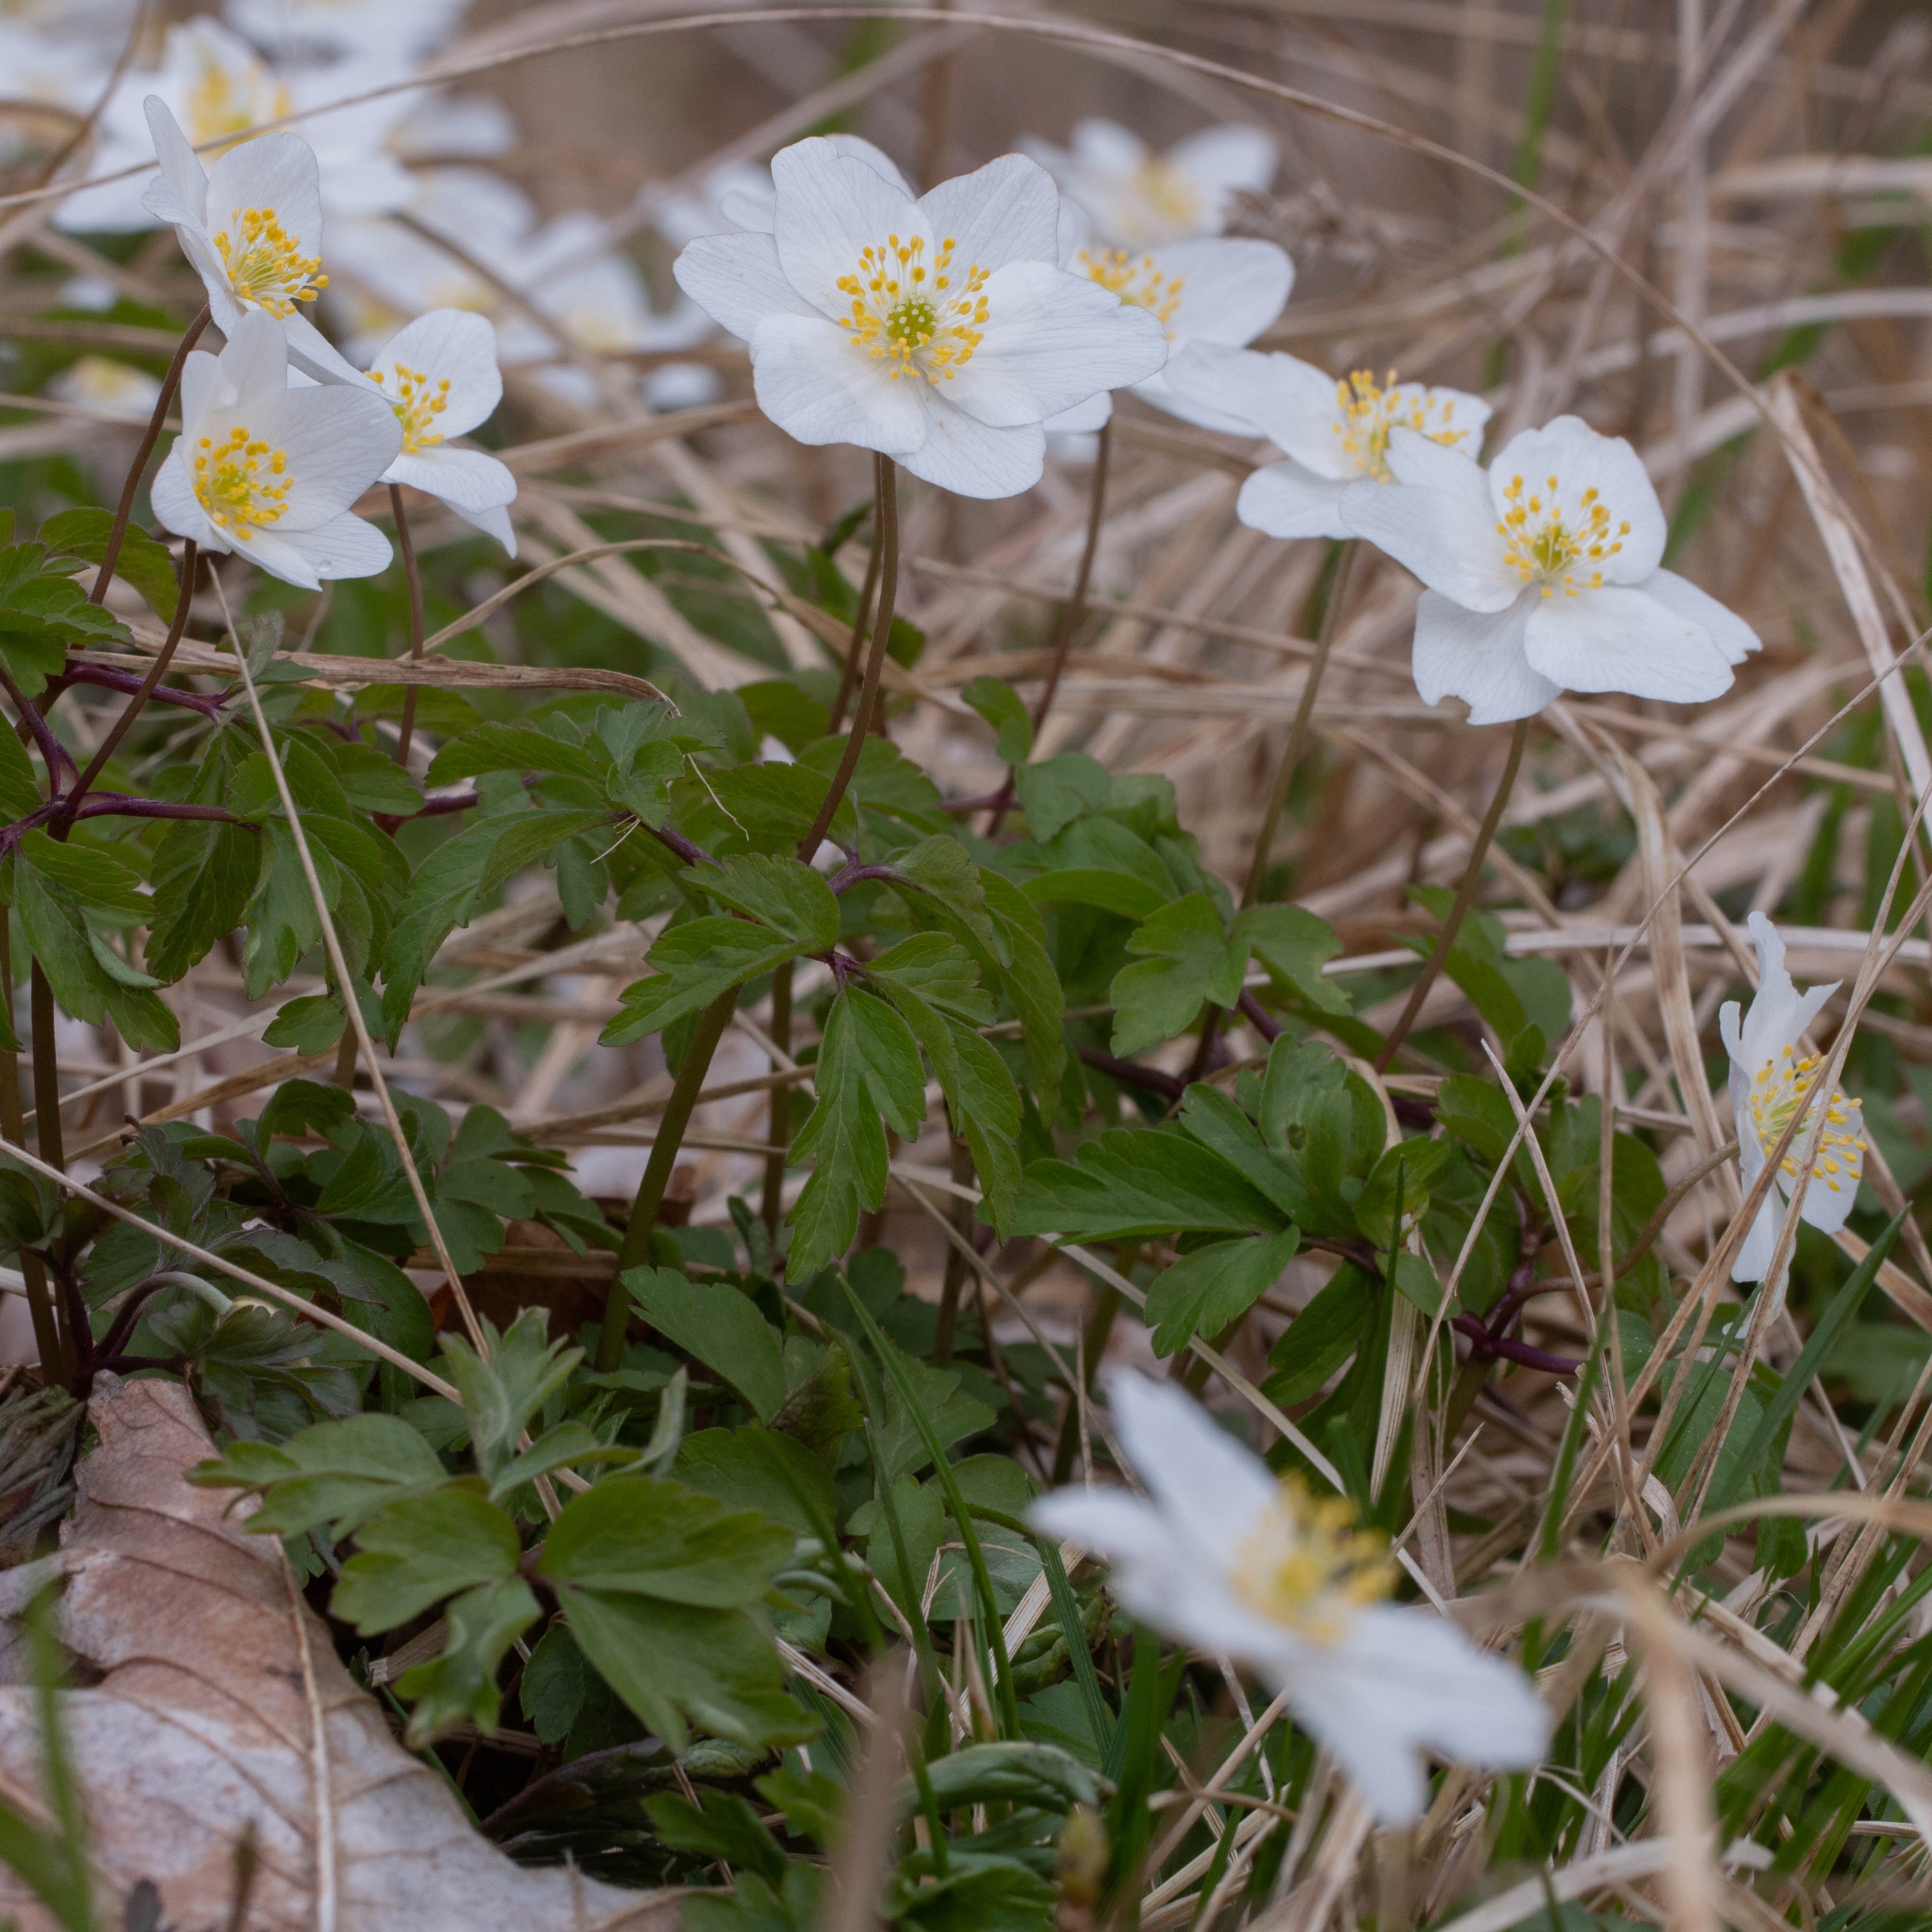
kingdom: Plantae
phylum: Tracheophyta
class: Magnoliopsida
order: Ranunculales
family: Ranunculaceae
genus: Anemone
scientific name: Anemone nemorosa
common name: Hvid anemone
